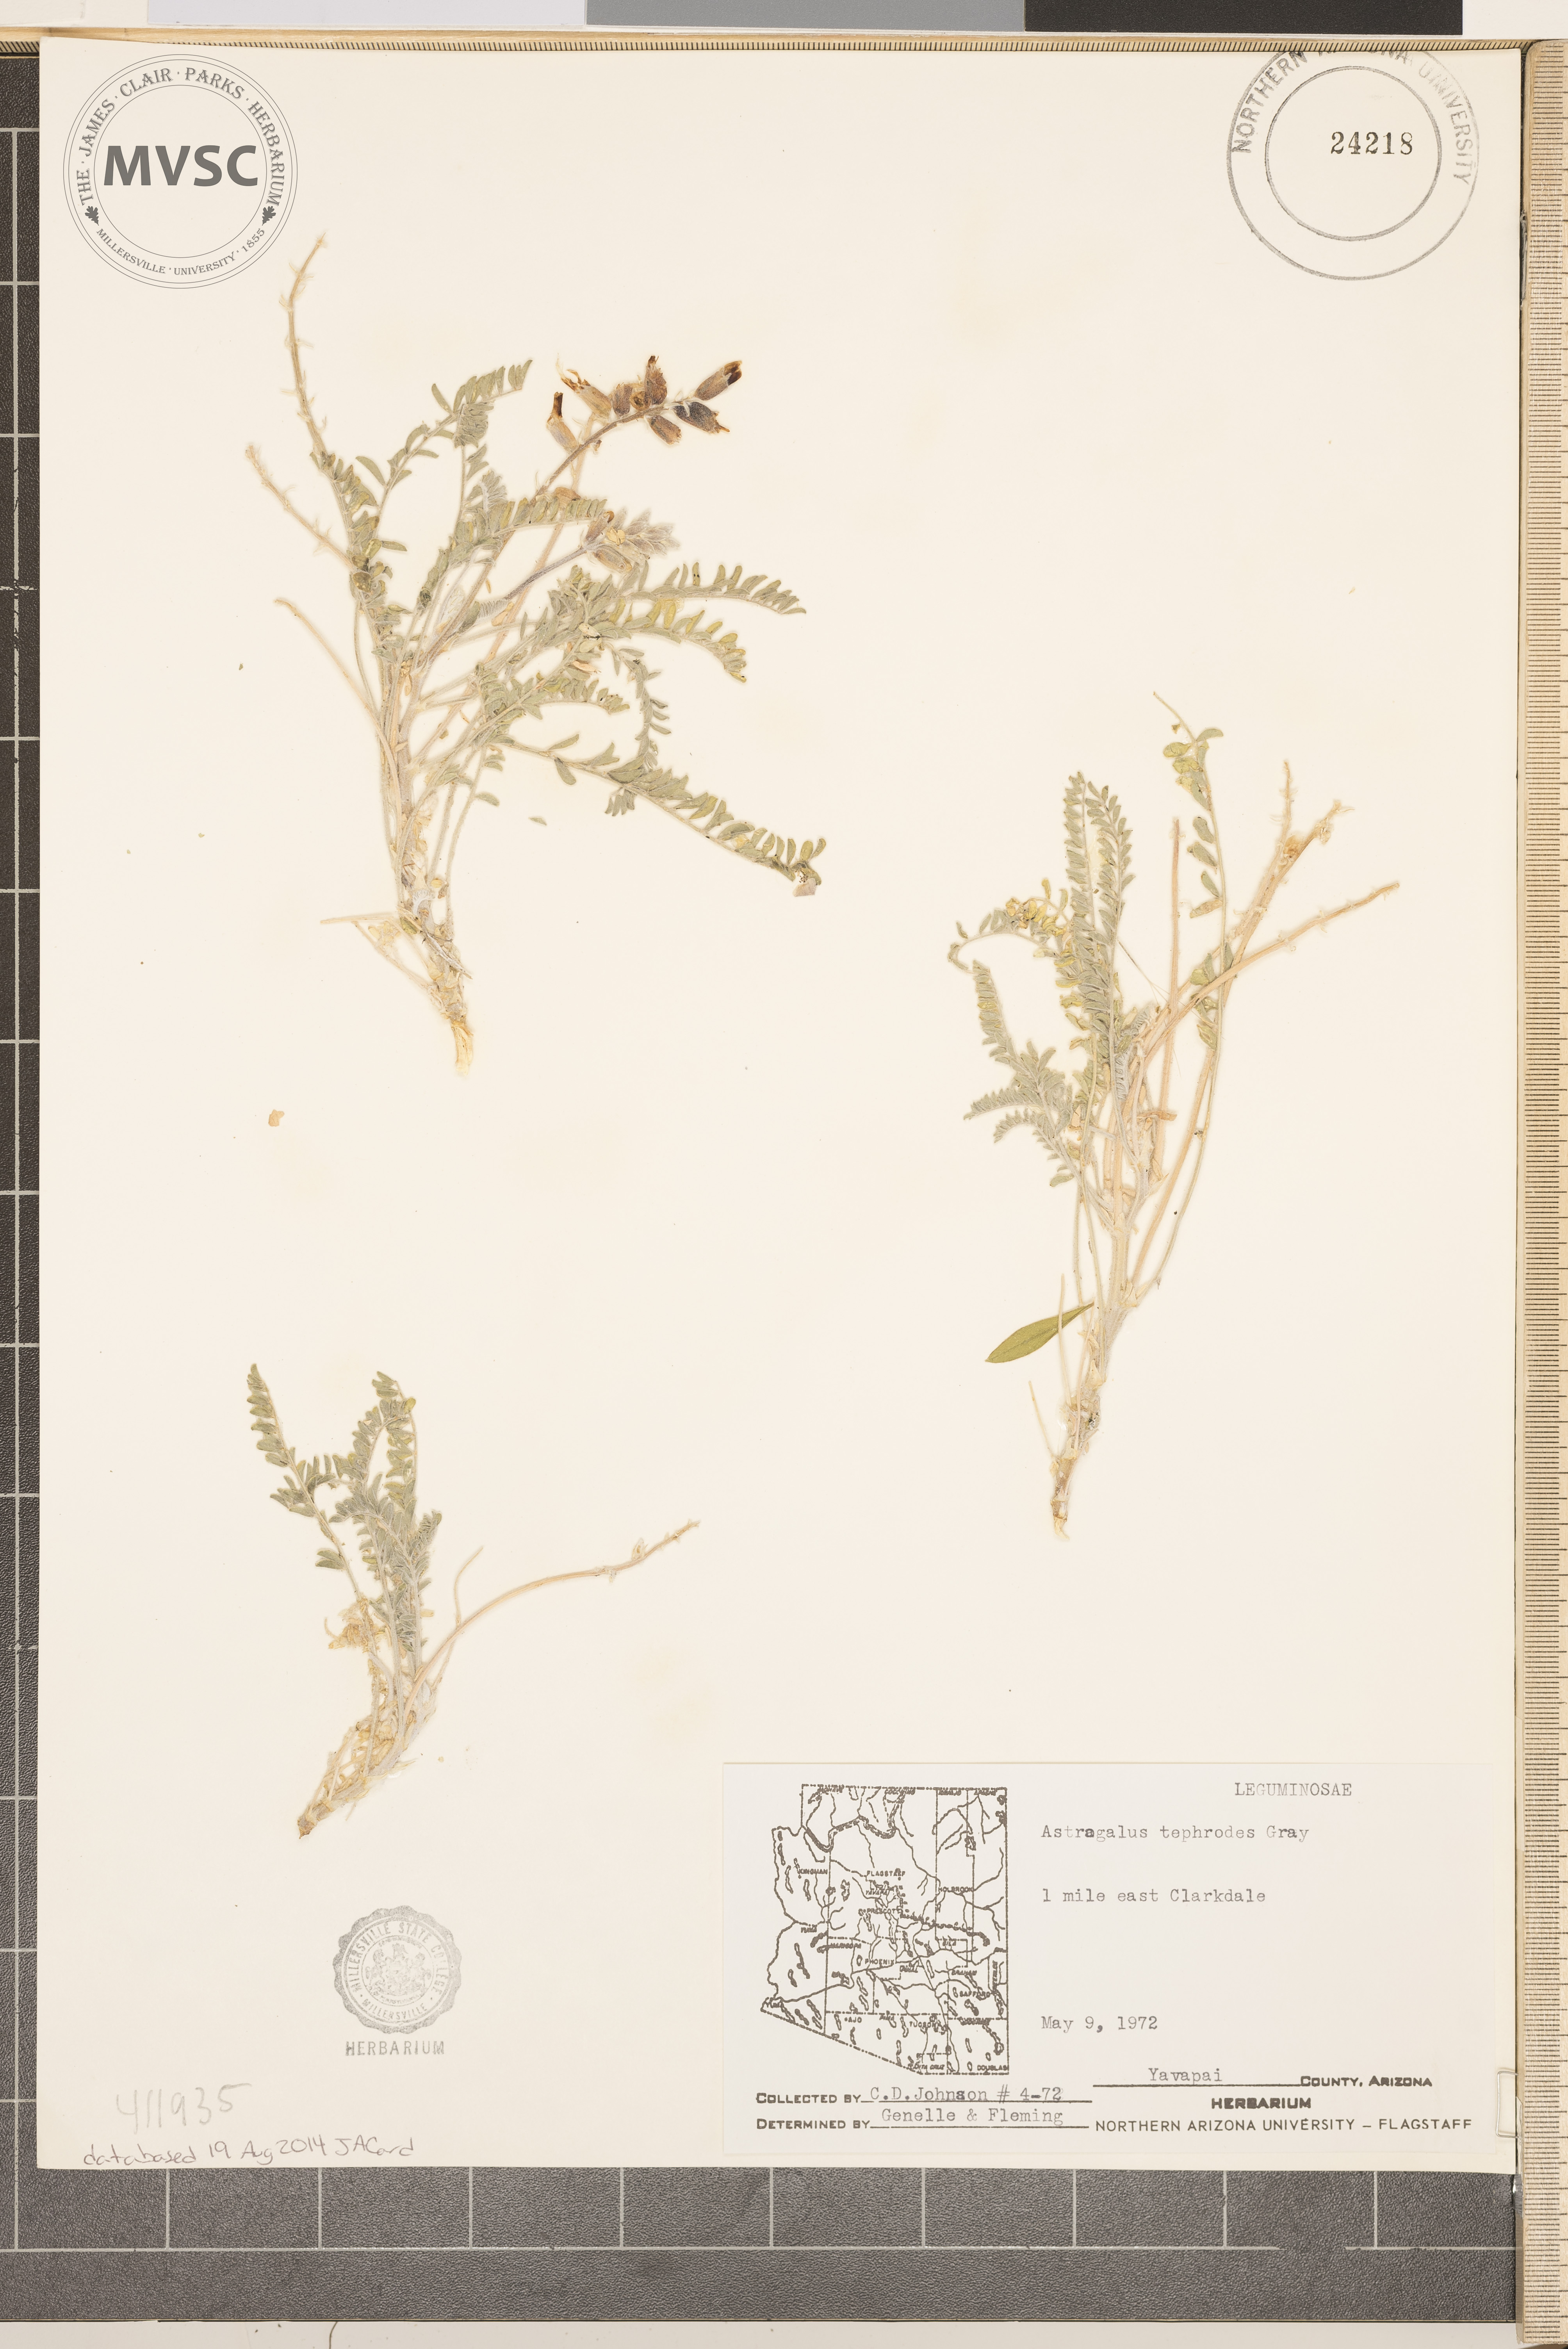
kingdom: Plantae
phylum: Tracheophyta
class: Magnoliopsida
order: Fabales
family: Fabaceae
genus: Astragalus
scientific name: Astragalus tephrodes
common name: Ashen milk-vetch
